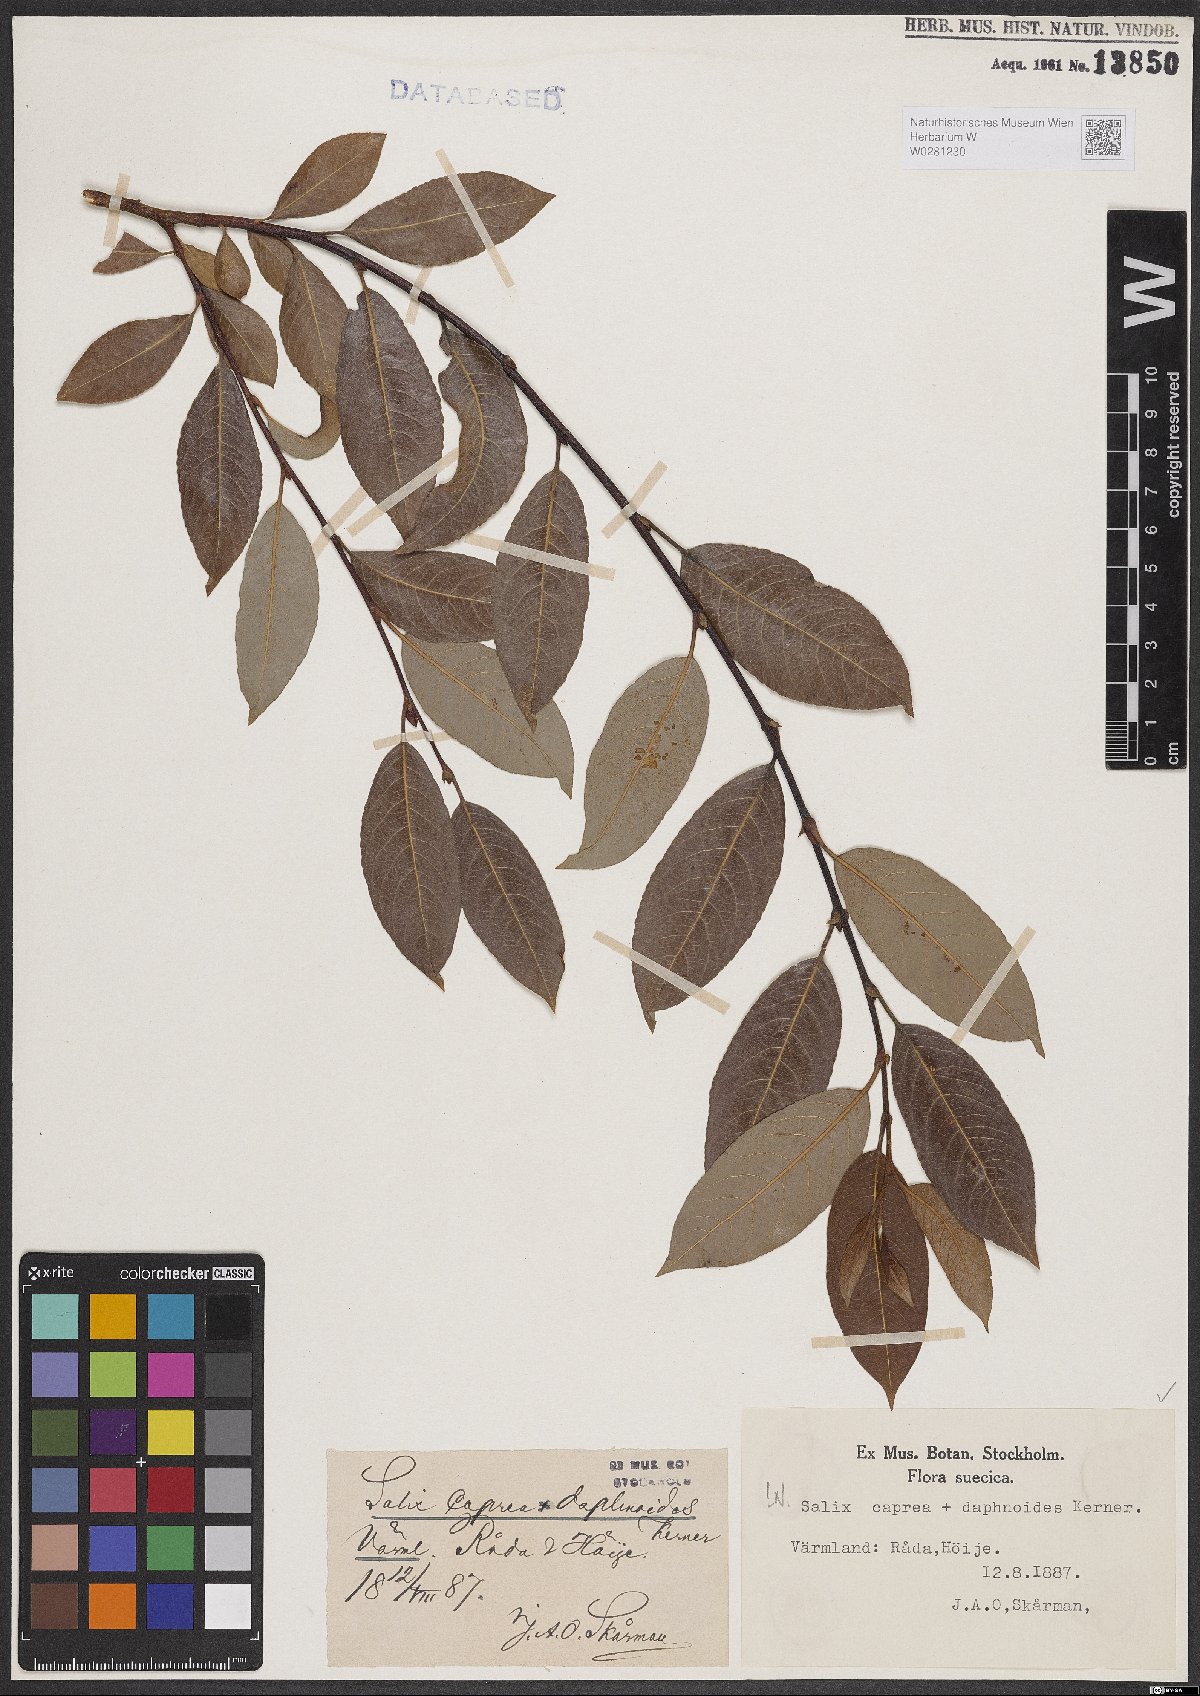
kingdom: Plantae
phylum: Tracheophyta
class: Magnoliopsida
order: Malpighiales
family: Salicaceae
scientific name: Salicaceae
